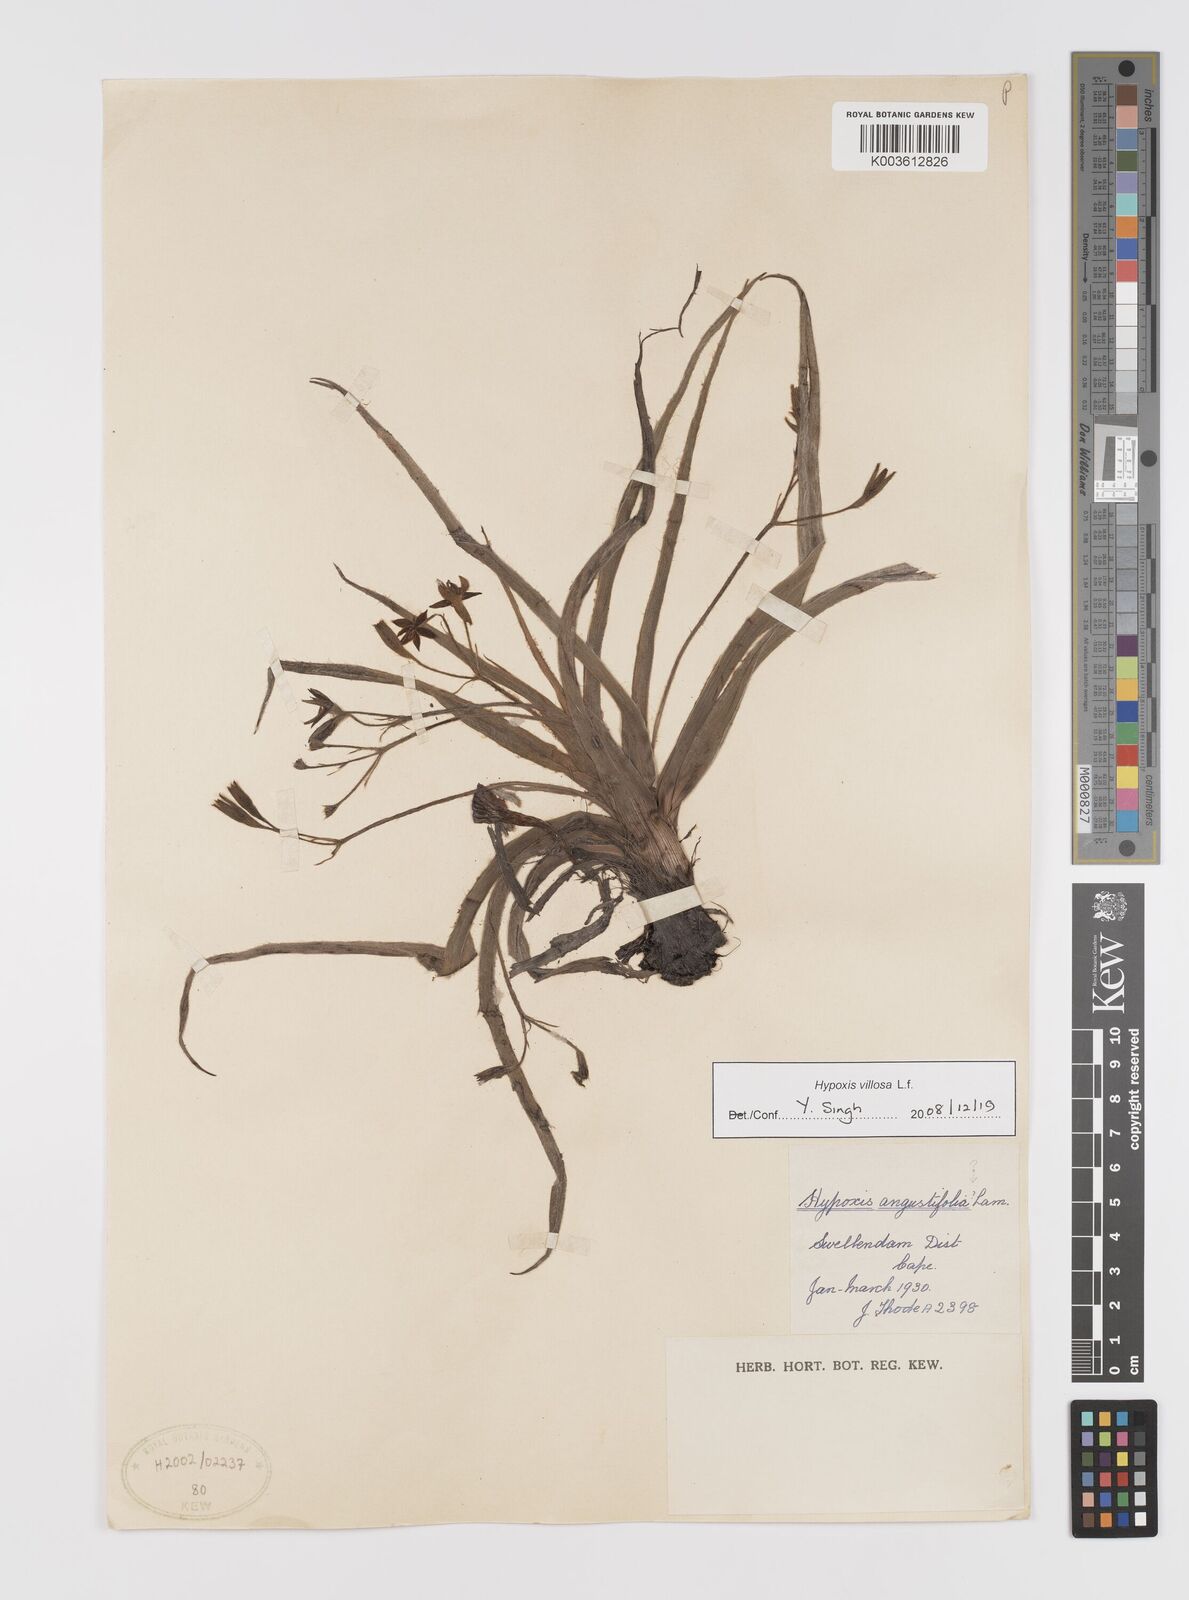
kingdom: Plantae
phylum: Tracheophyta
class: Liliopsida
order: Asparagales
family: Hypoxidaceae
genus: Hypoxis
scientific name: Hypoxis villosa
